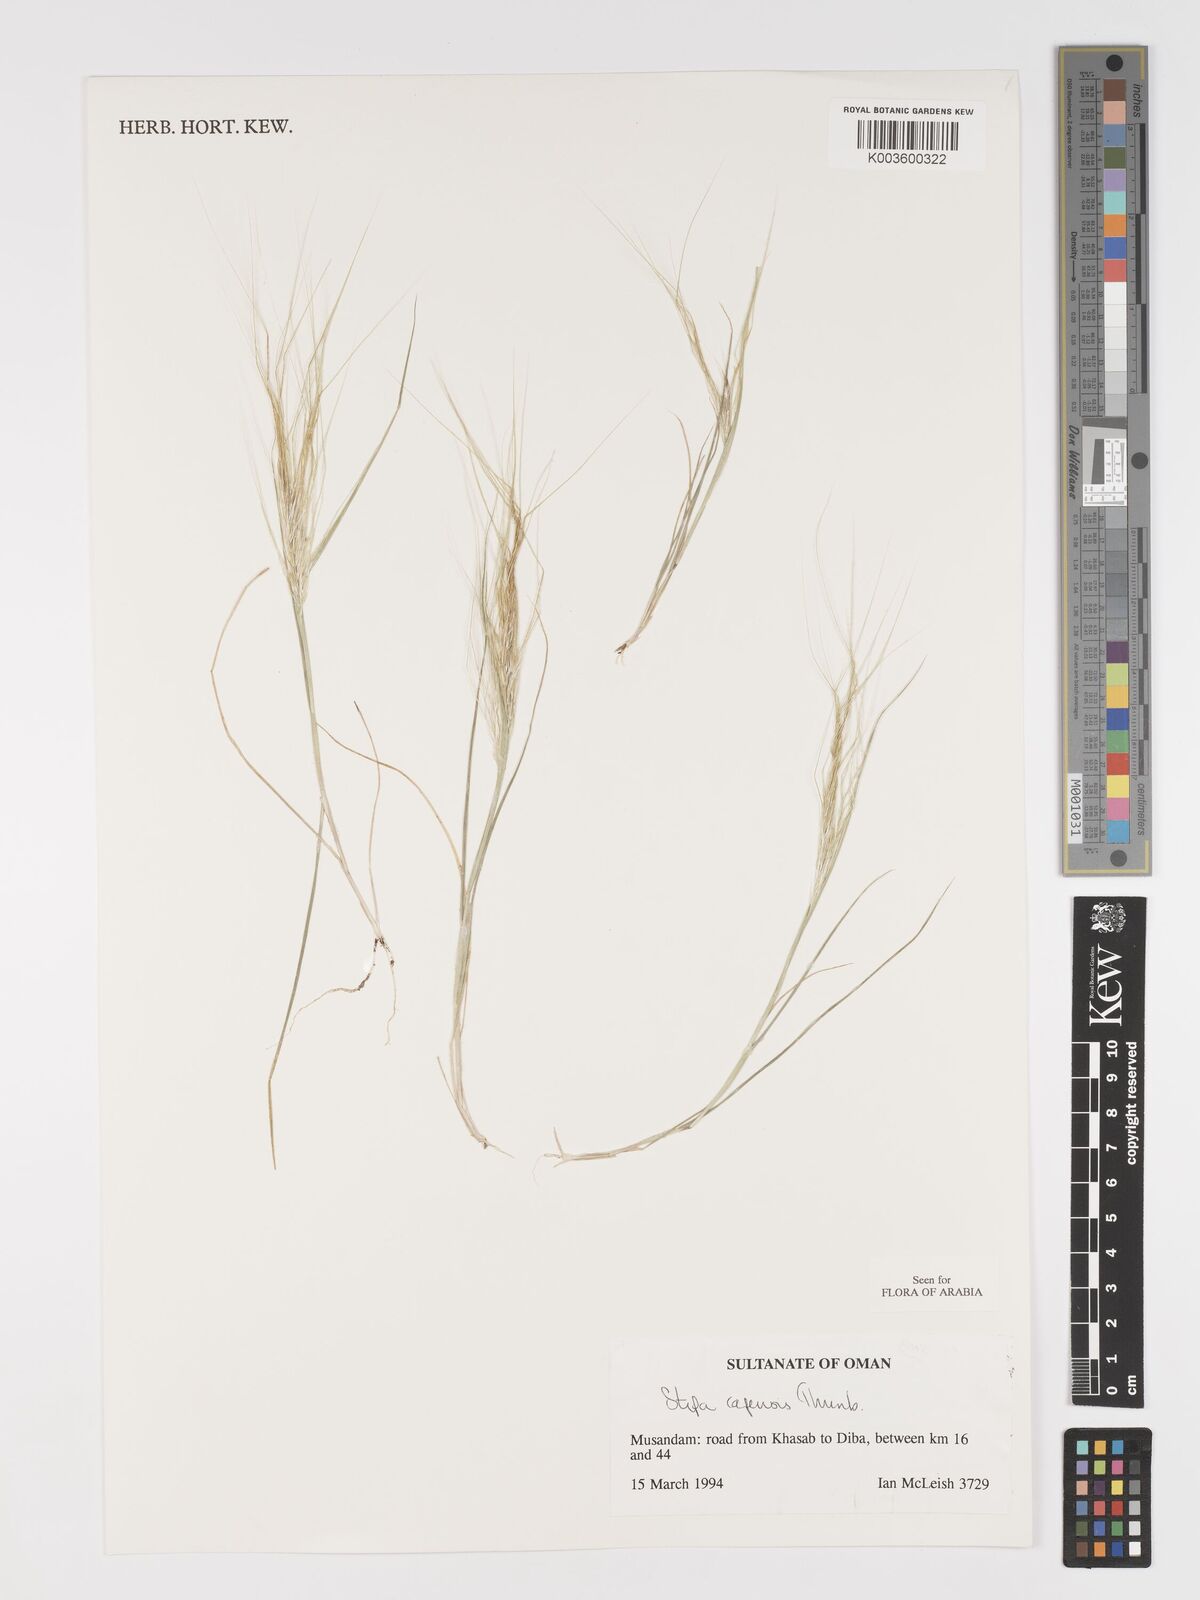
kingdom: Plantae
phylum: Tracheophyta
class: Liliopsida
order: Poales
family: Poaceae
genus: Stipellula
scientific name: Stipellula capensis
